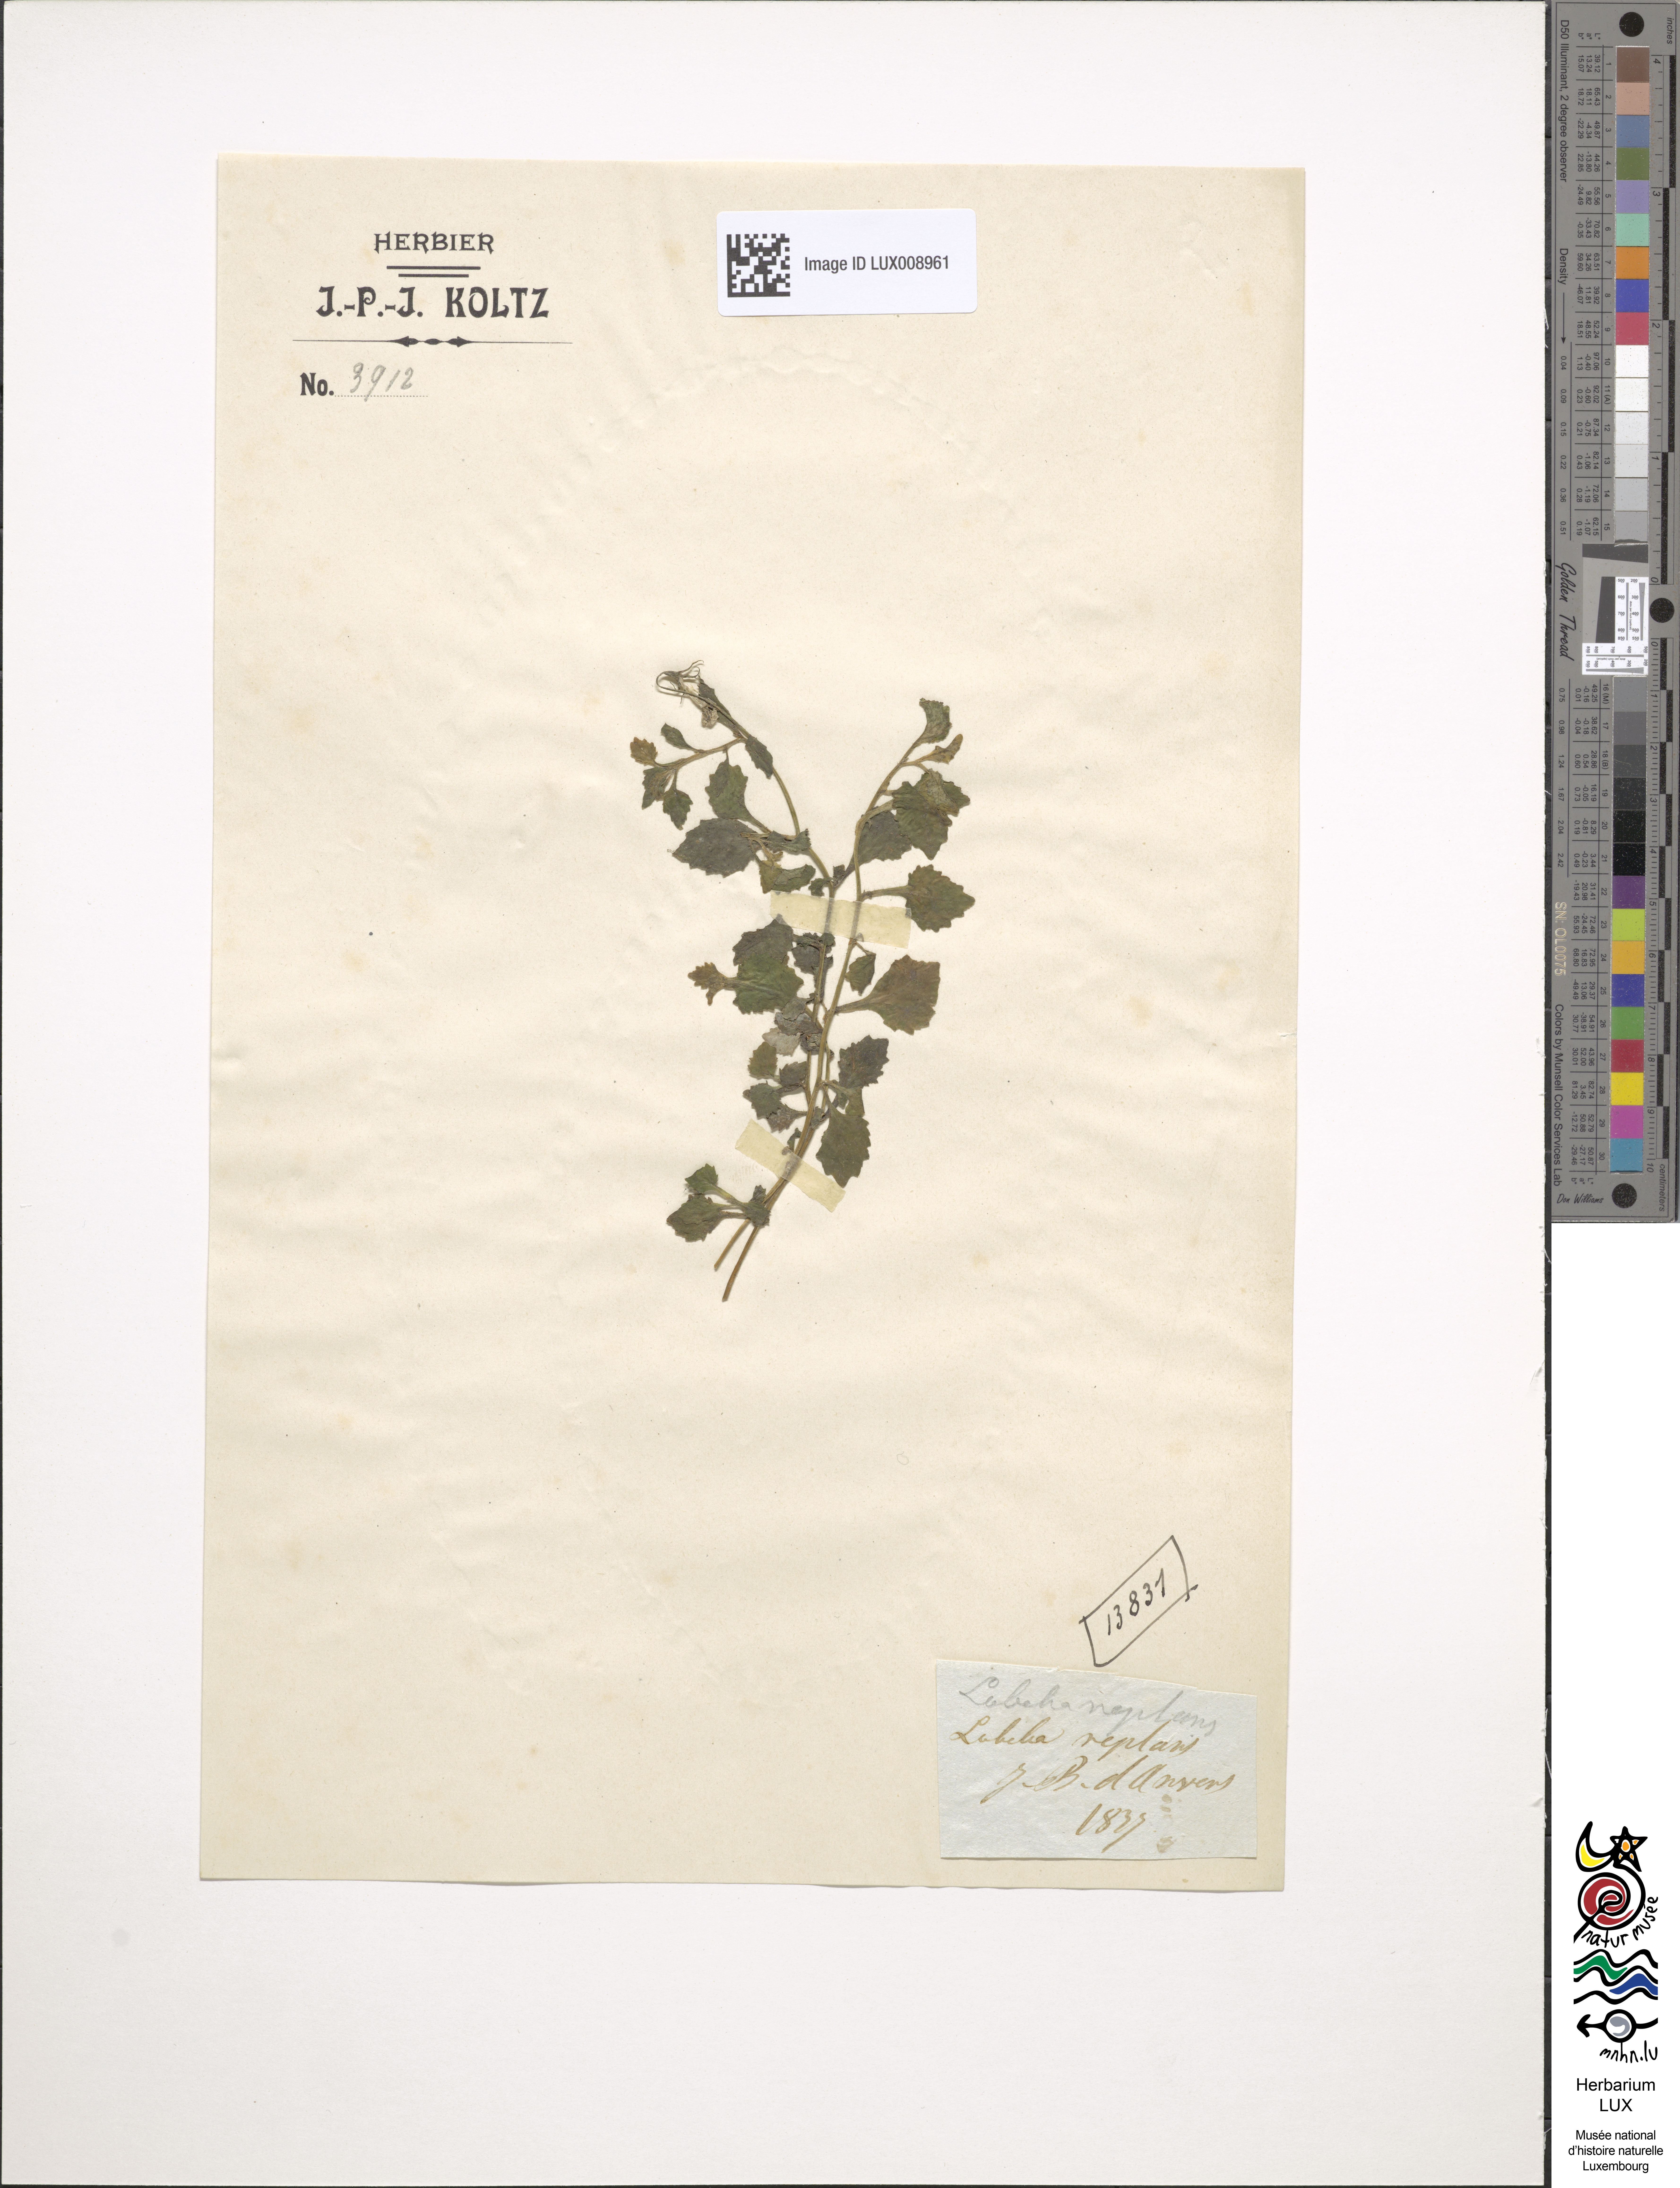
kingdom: Plantae
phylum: Tracheophyta
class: Magnoliopsida
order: Asterales
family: Campanulaceae
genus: Lobelia
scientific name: Lobelia reptans
